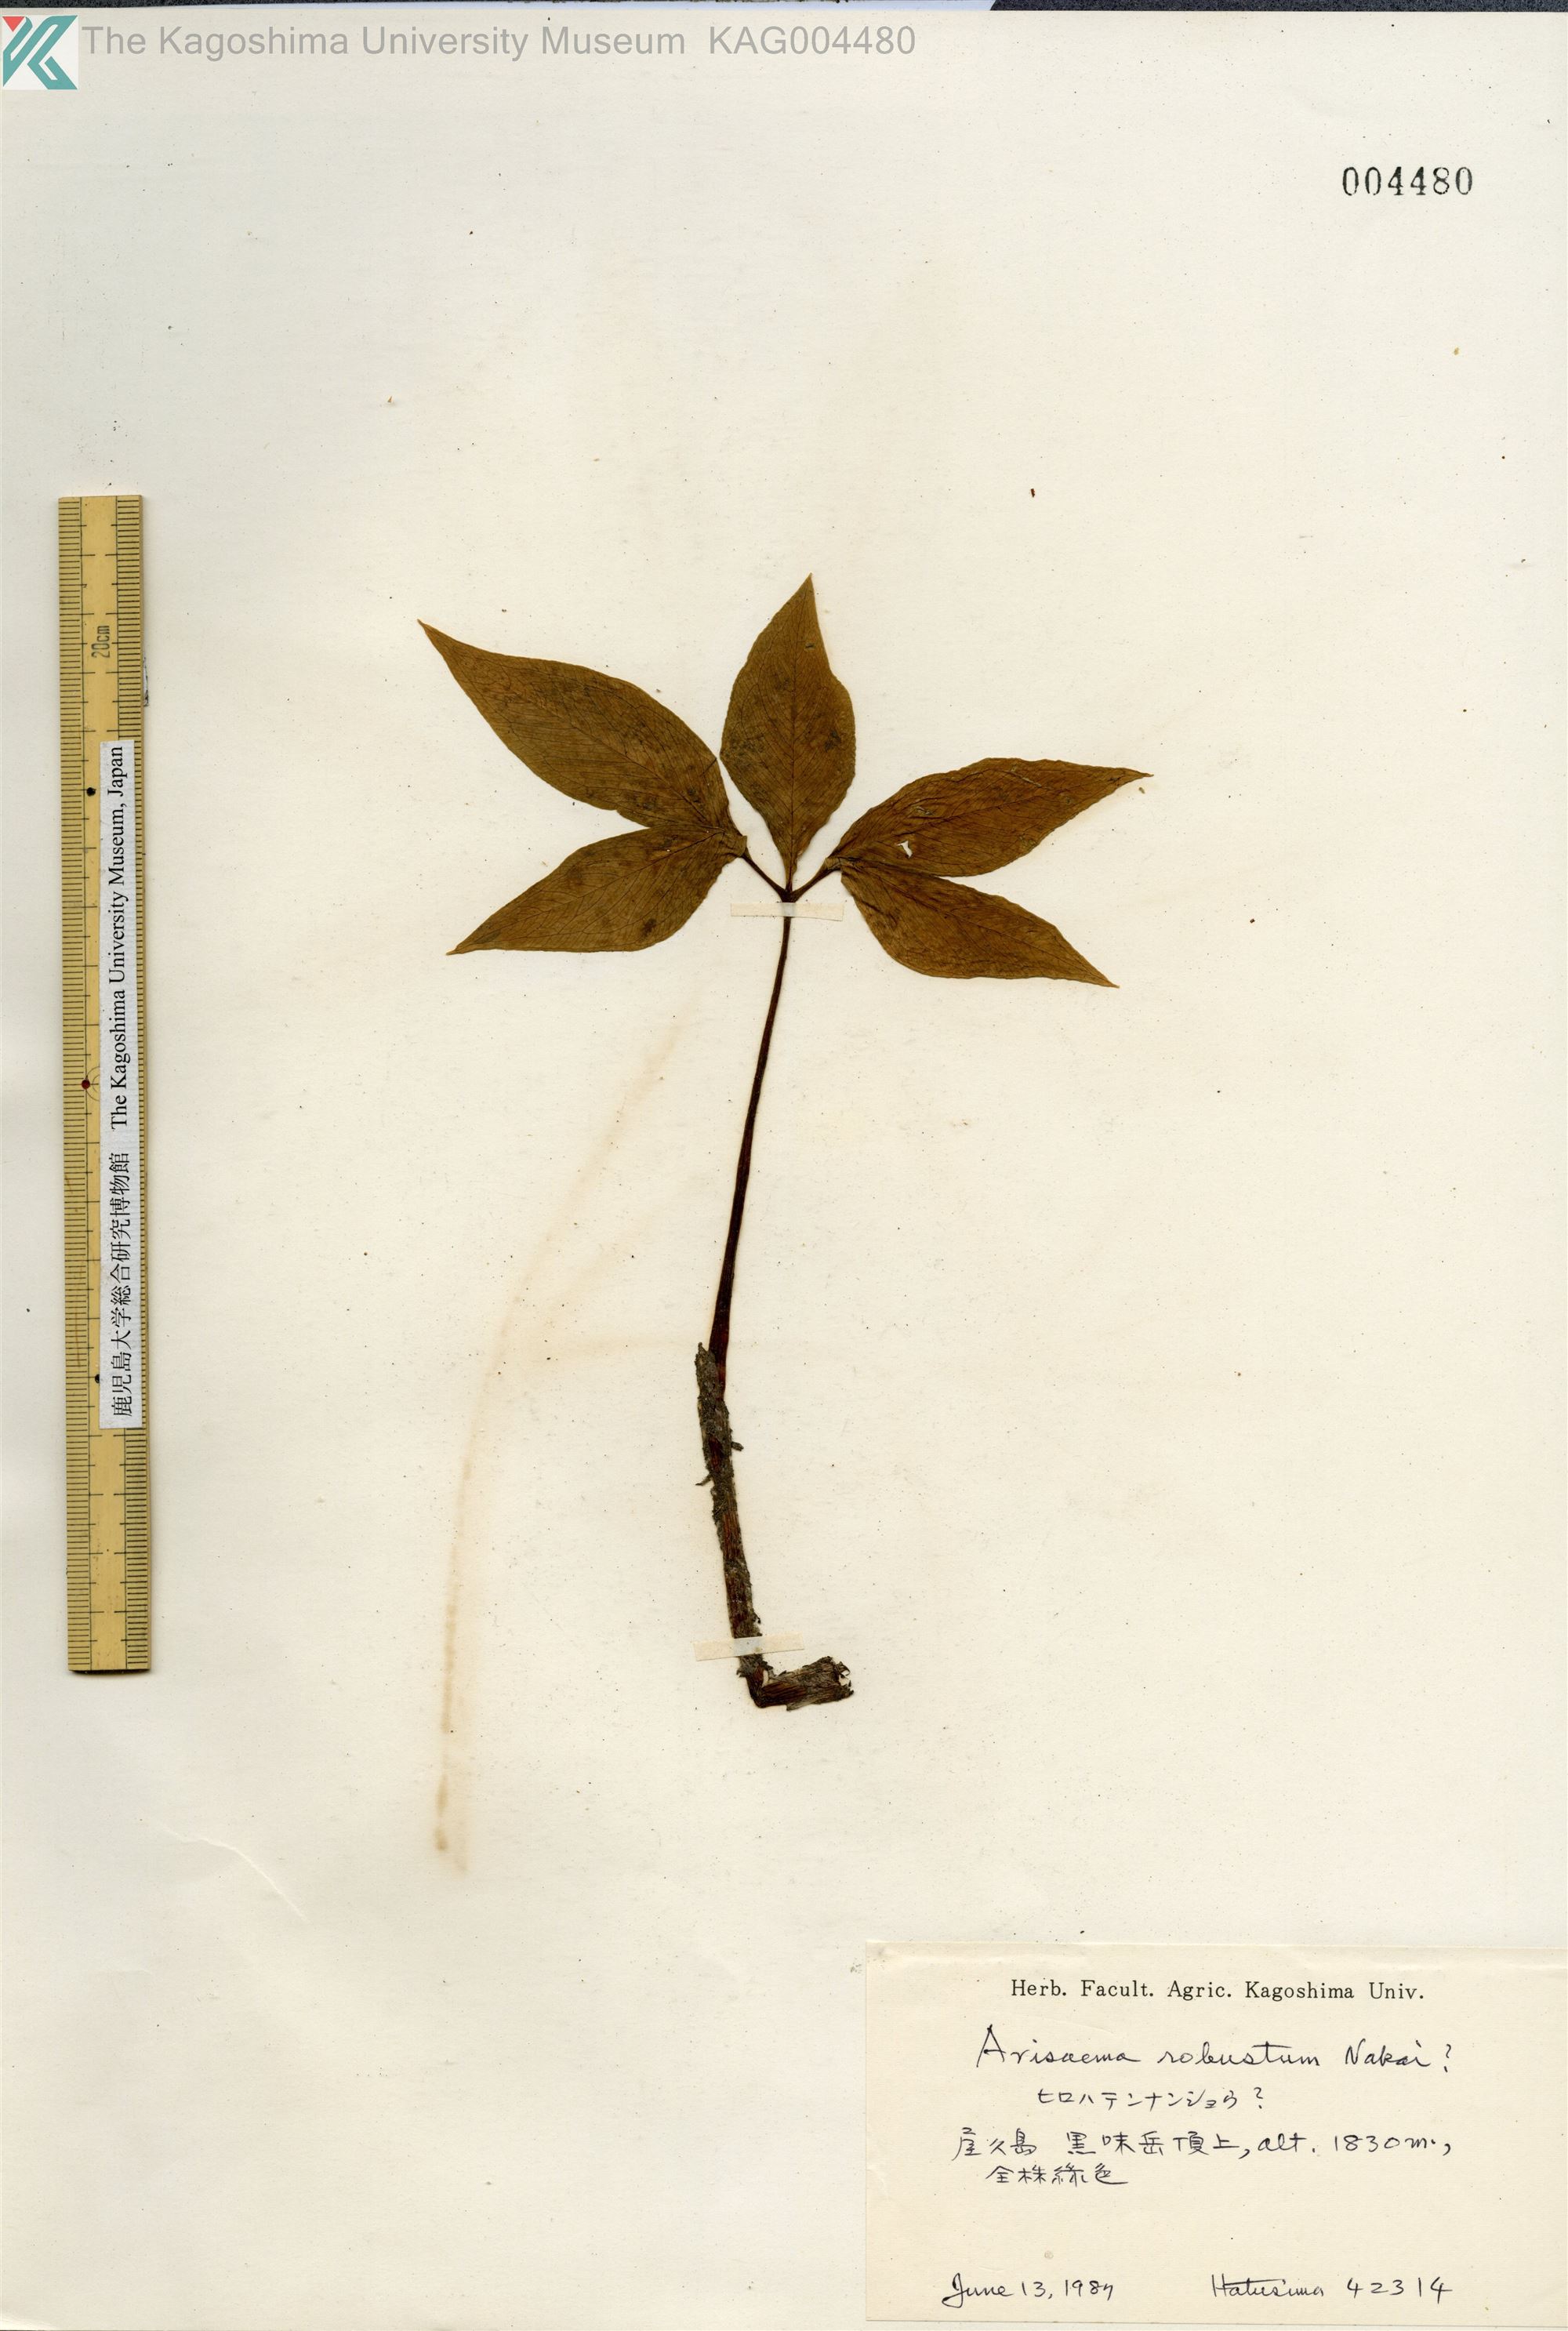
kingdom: Plantae
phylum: Tracheophyta
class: Liliopsida
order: Alismatales
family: Araceae
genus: Arisaema
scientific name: Arisaema amurense
